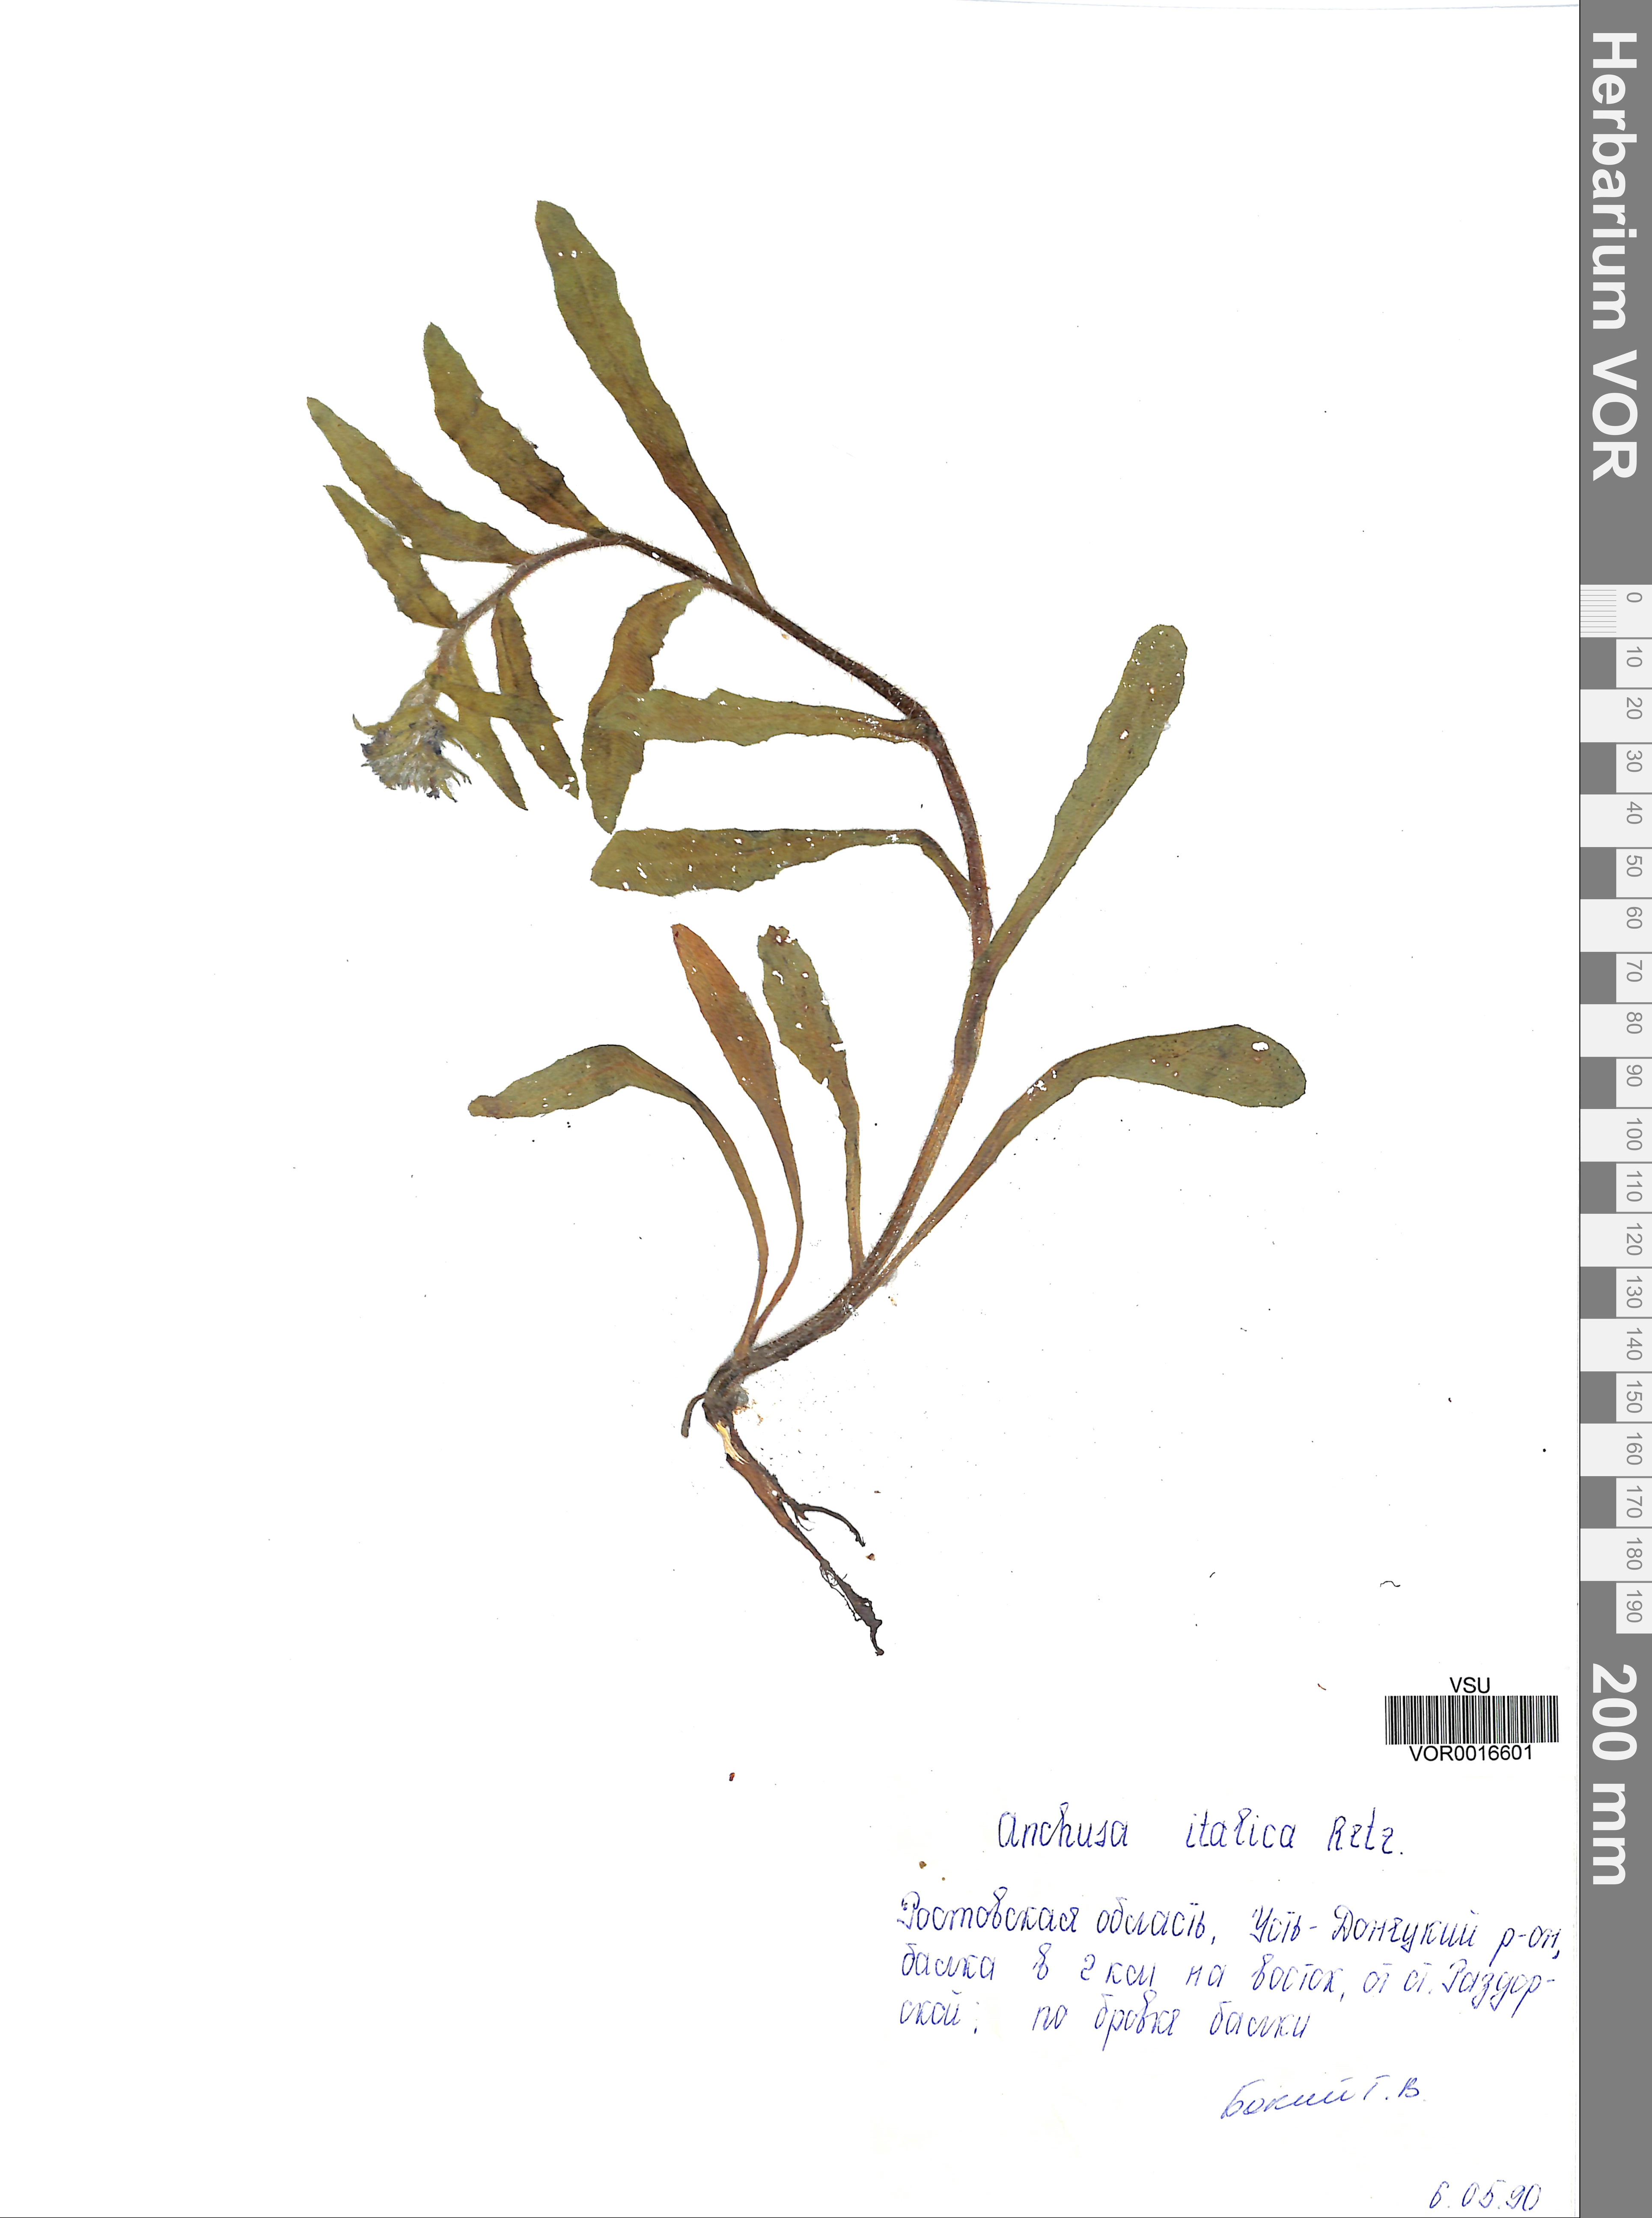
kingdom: Plantae
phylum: Tracheophyta
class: Magnoliopsida
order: Boraginales
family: Boraginaceae
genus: Anchusa
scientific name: Anchusa azurea
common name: Garden anchusa
